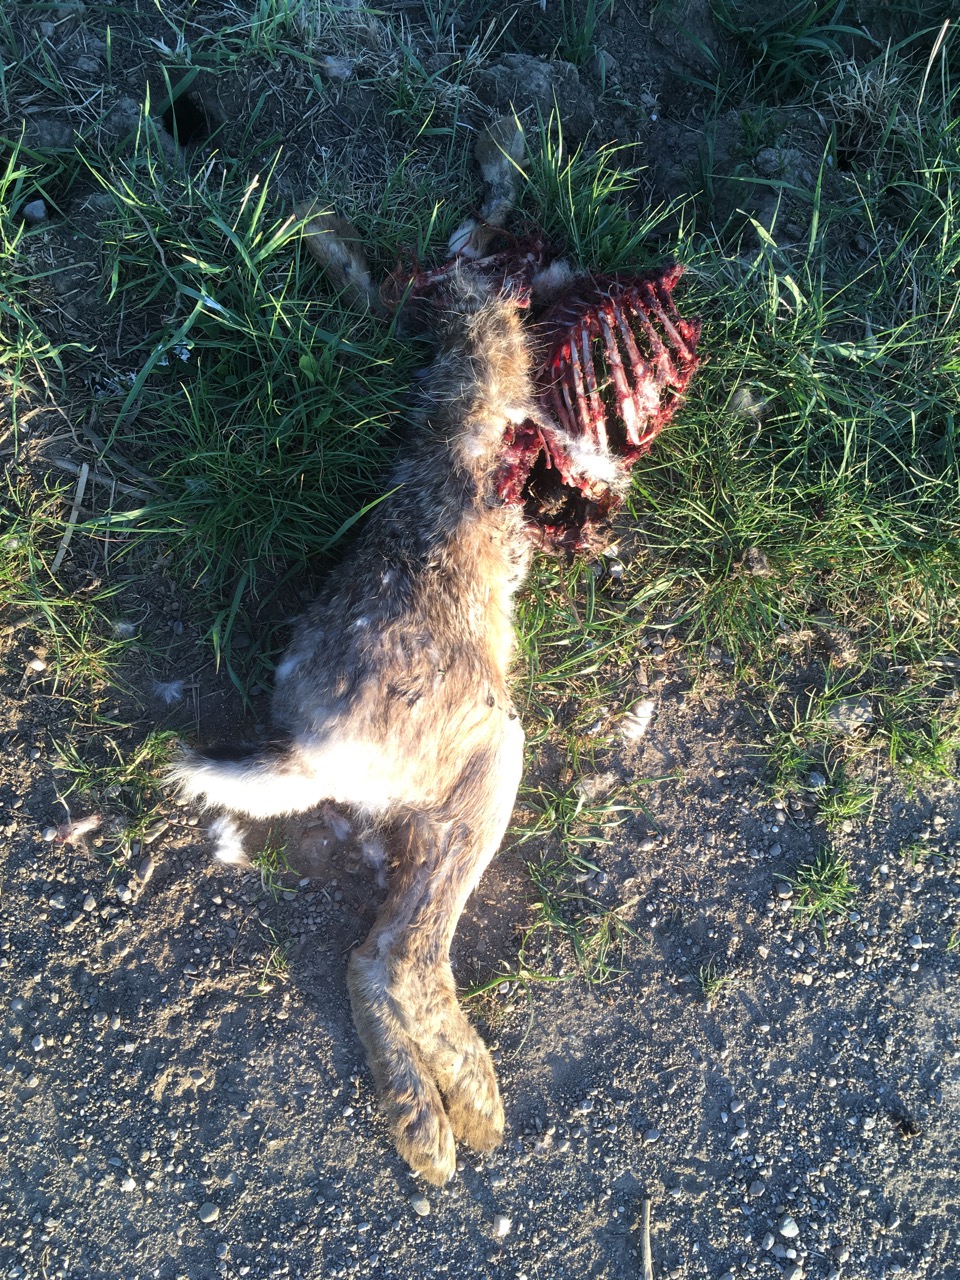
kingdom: Animalia
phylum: Chordata
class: Mammalia
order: Lagomorpha
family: Leporidae
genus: Lepus
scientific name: Lepus europaeus
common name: European hare
